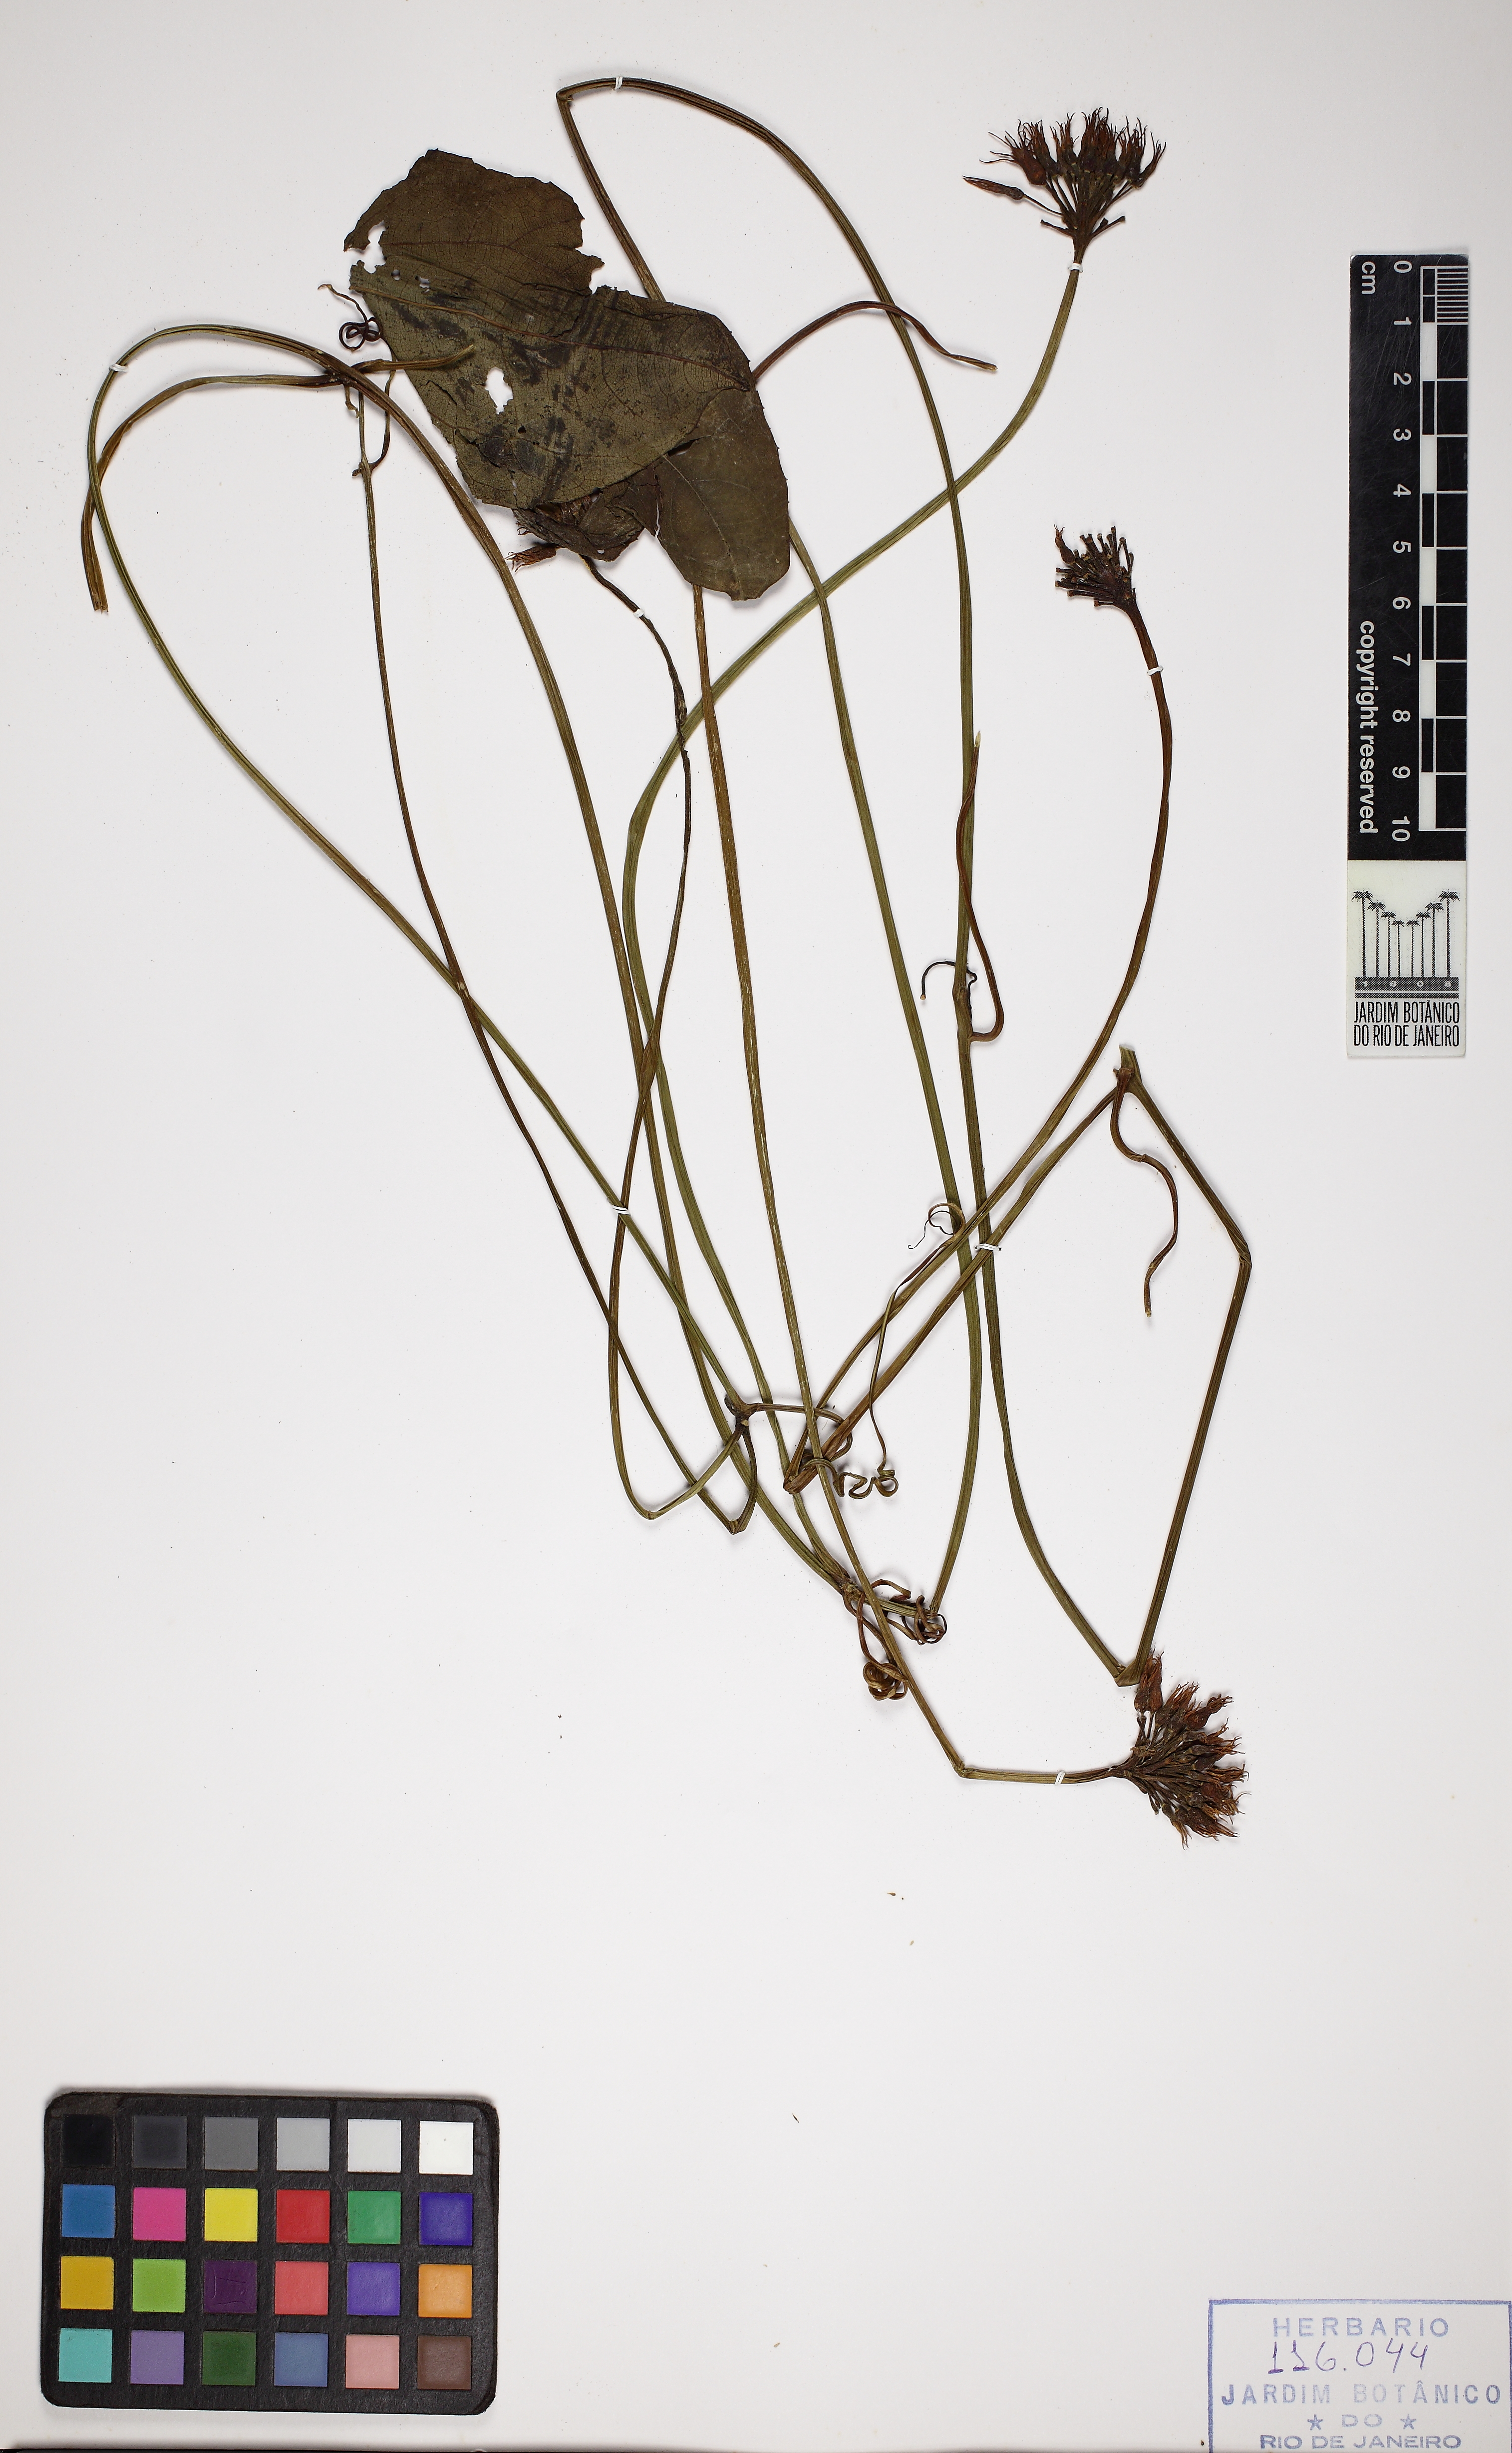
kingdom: Plantae
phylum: Tracheophyta
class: Magnoliopsida
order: Cucurbitales
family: Cucurbitaceae
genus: Gurania
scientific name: Gurania
